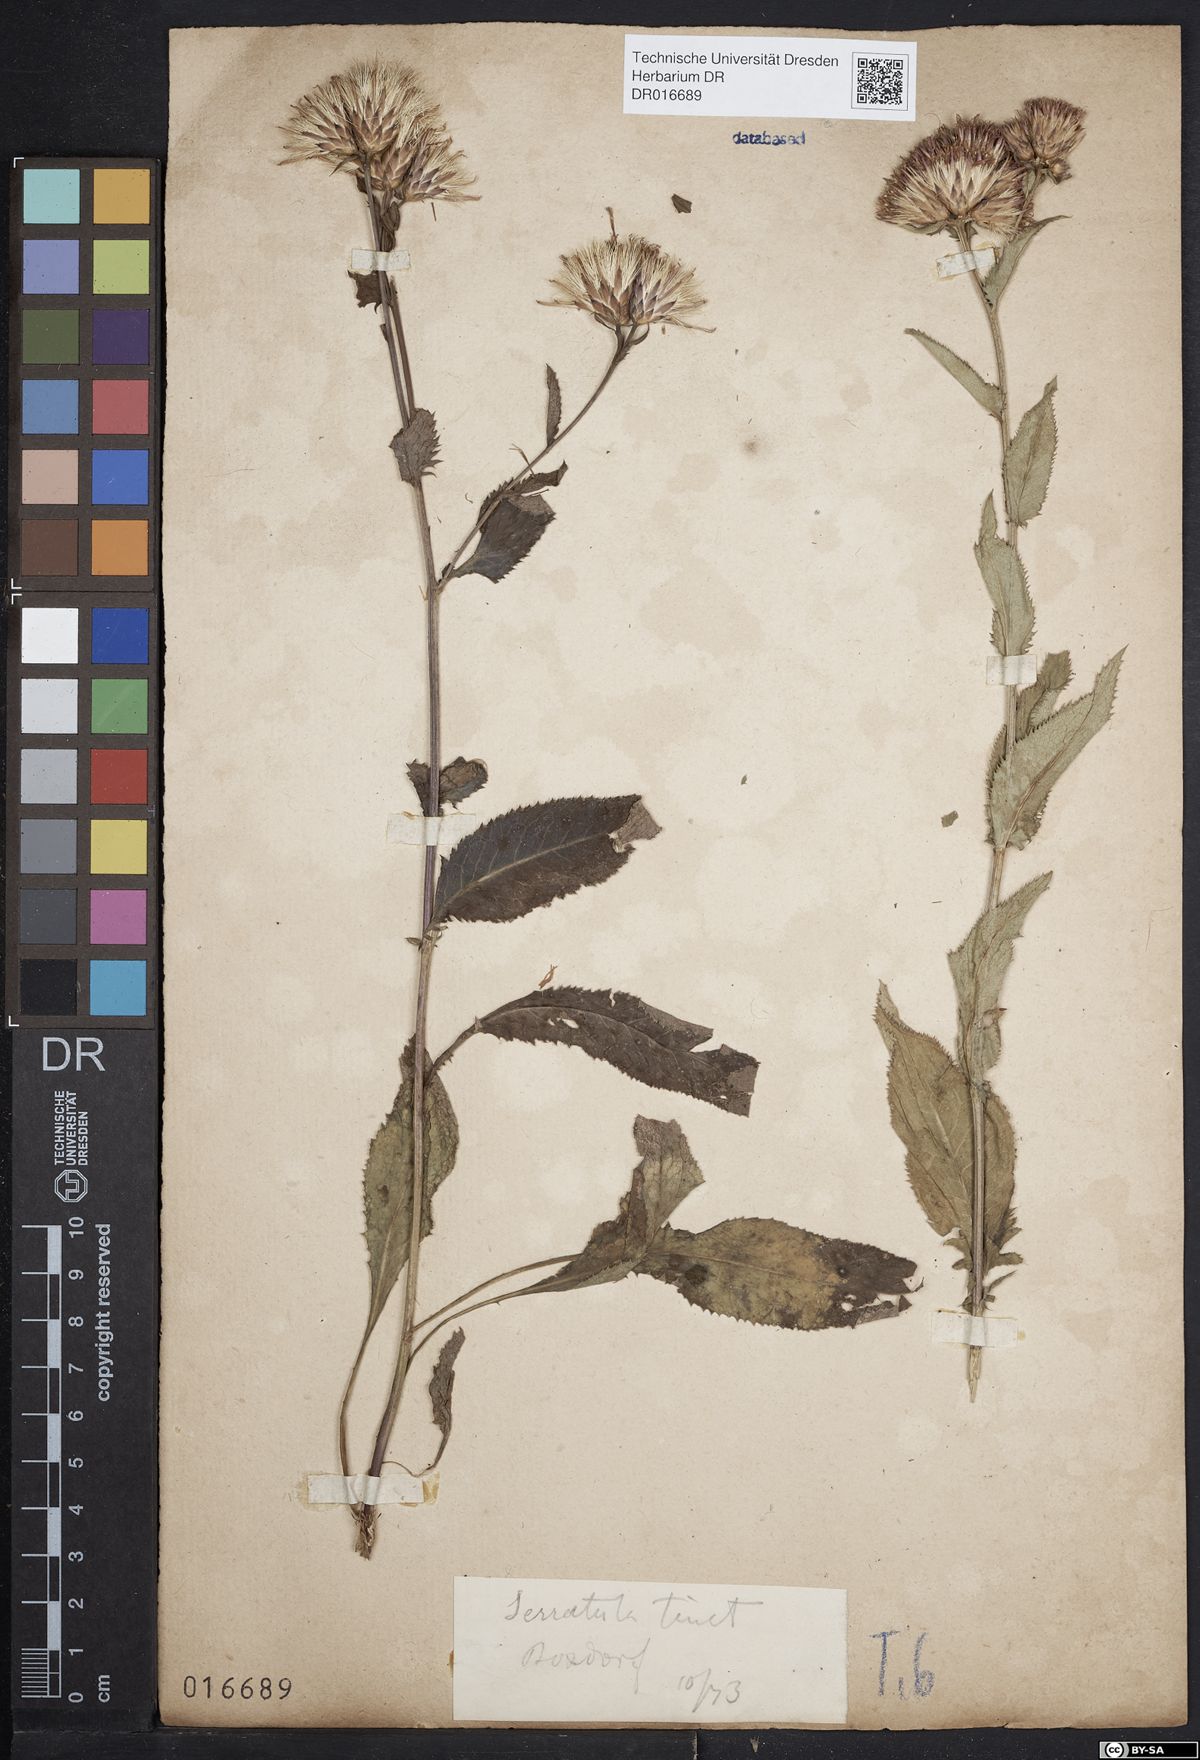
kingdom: Plantae
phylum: Tracheophyta
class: Magnoliopsida
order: Asterales
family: Asteraceae
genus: Serratula
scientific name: Serratula tinctoria
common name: Saw-wort
